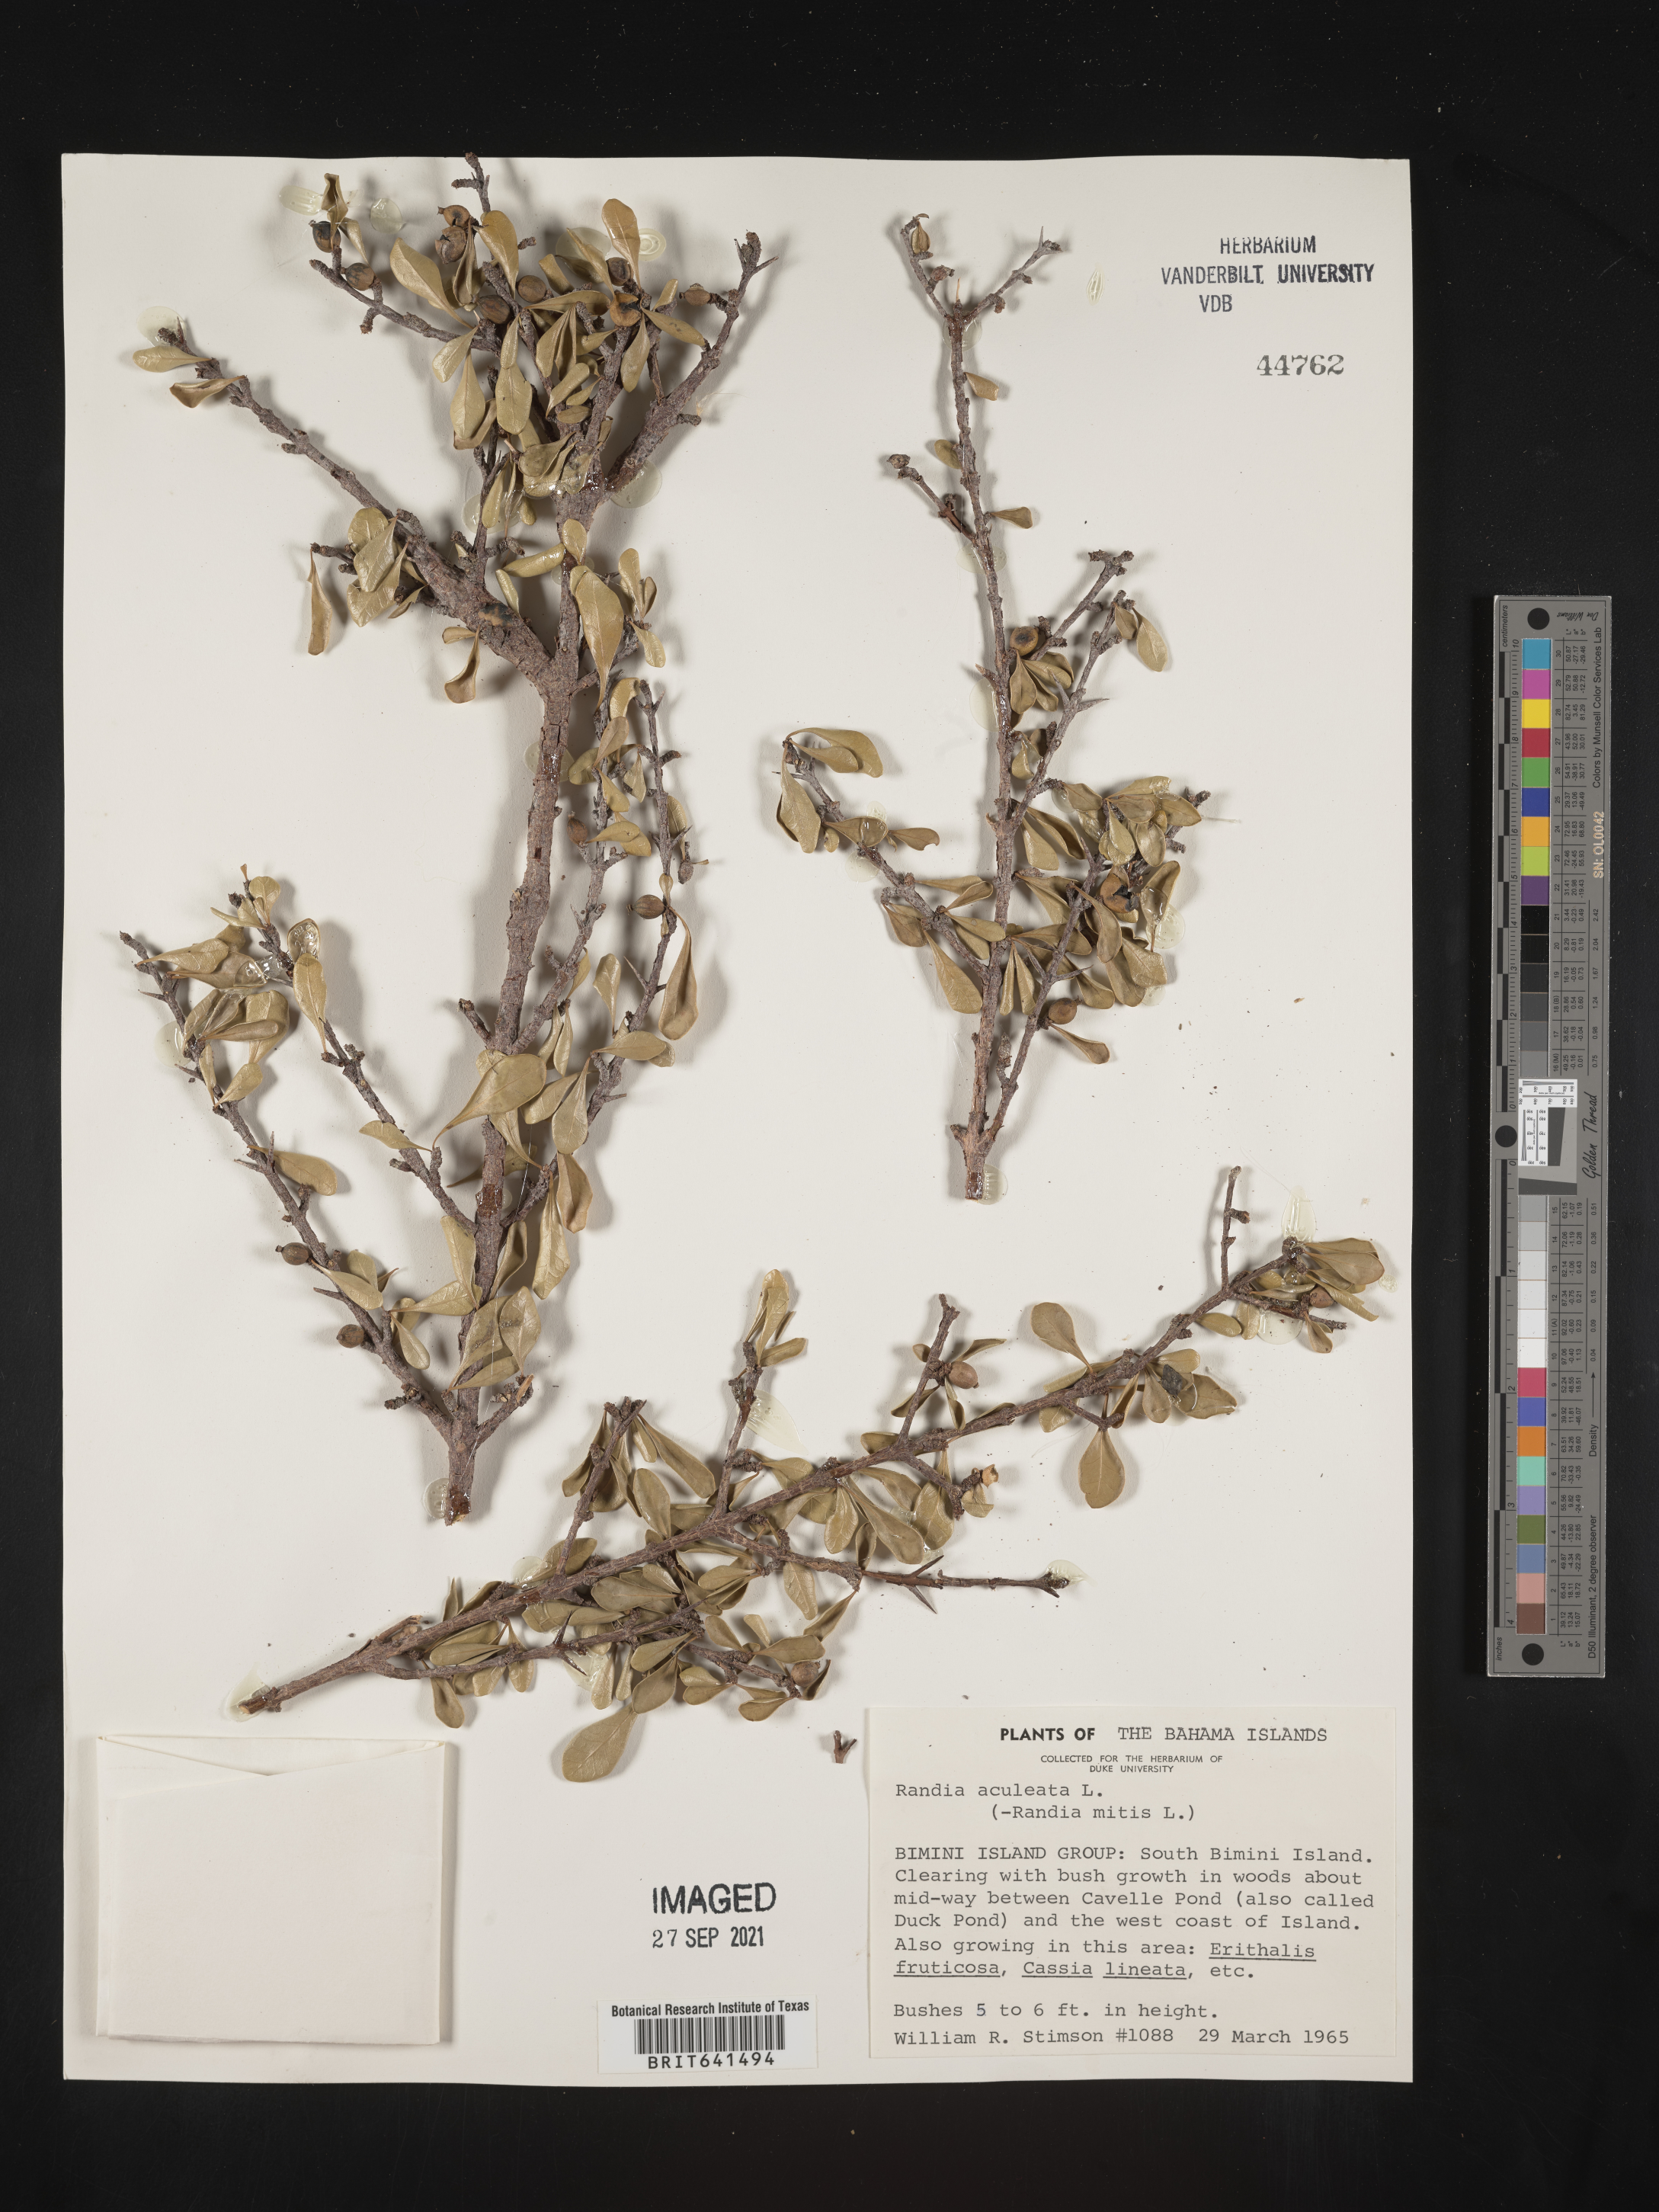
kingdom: Plantae
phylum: Tracheophyta
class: Magnoliopsida
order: Gentianales
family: Rubiaceae
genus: Randia
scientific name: Randia
